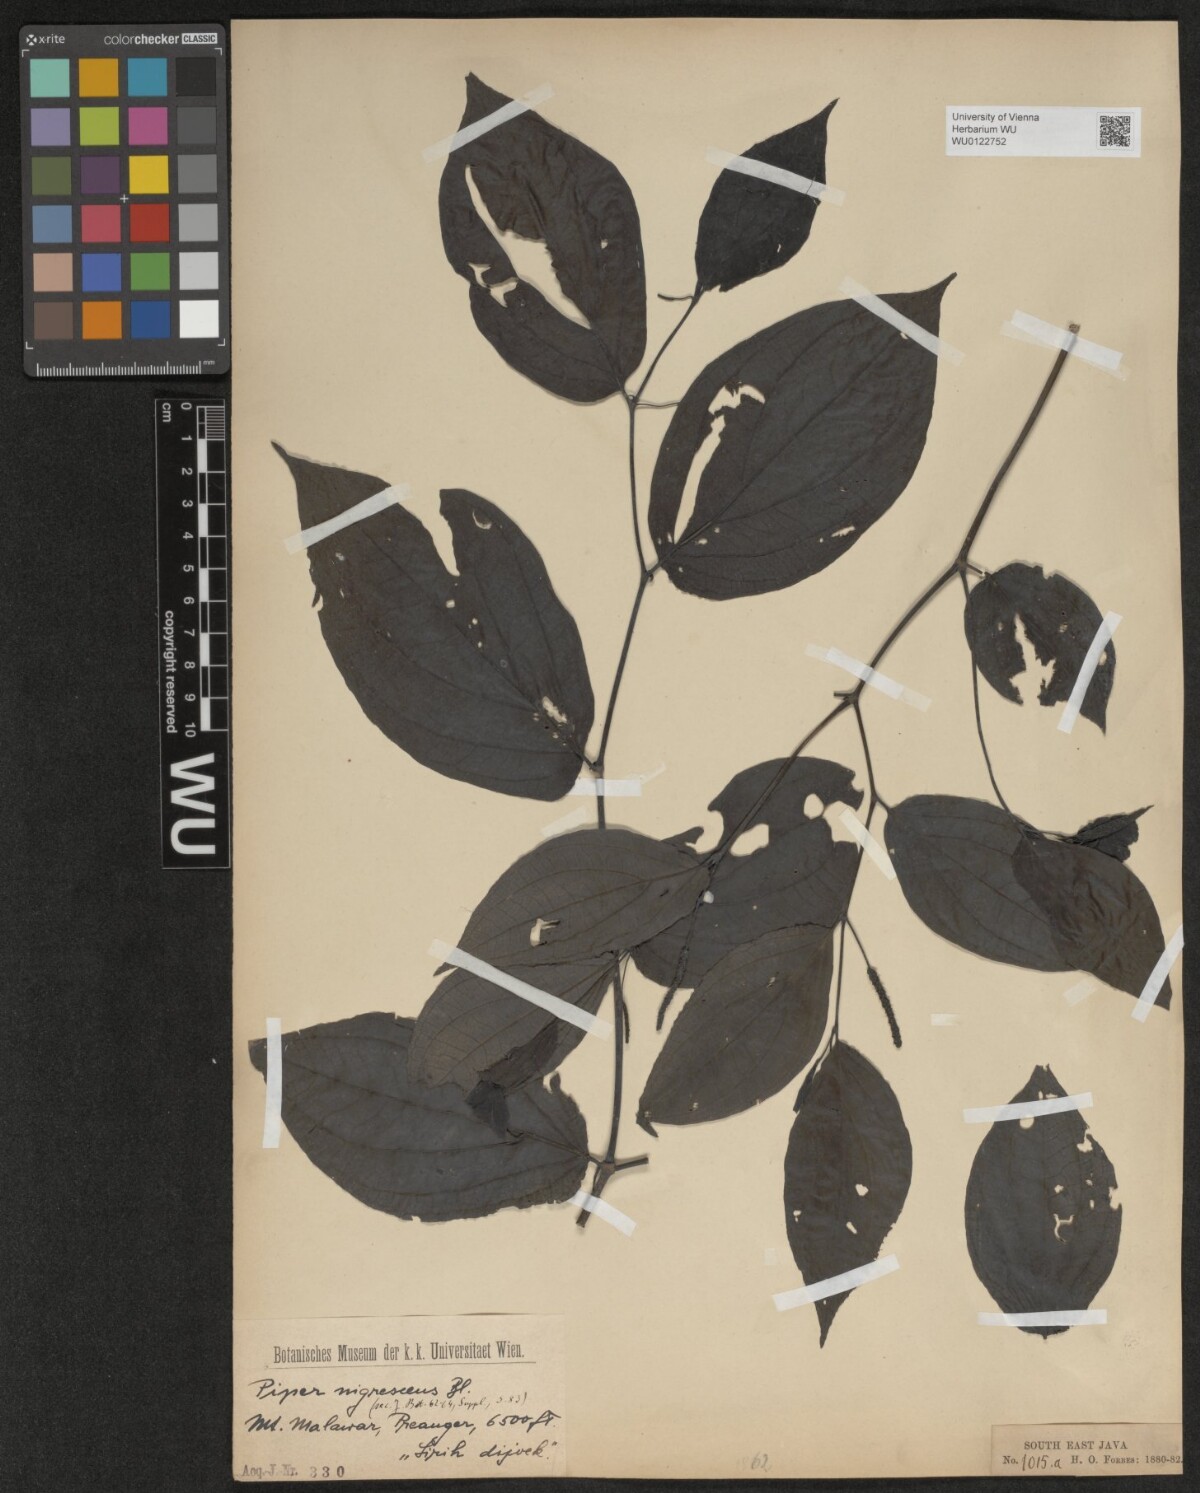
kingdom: Plantae
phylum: Tracheophyta
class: Magnoliopsida
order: Piperales
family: Piperaceae
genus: Piper
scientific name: Piper sulcatum
